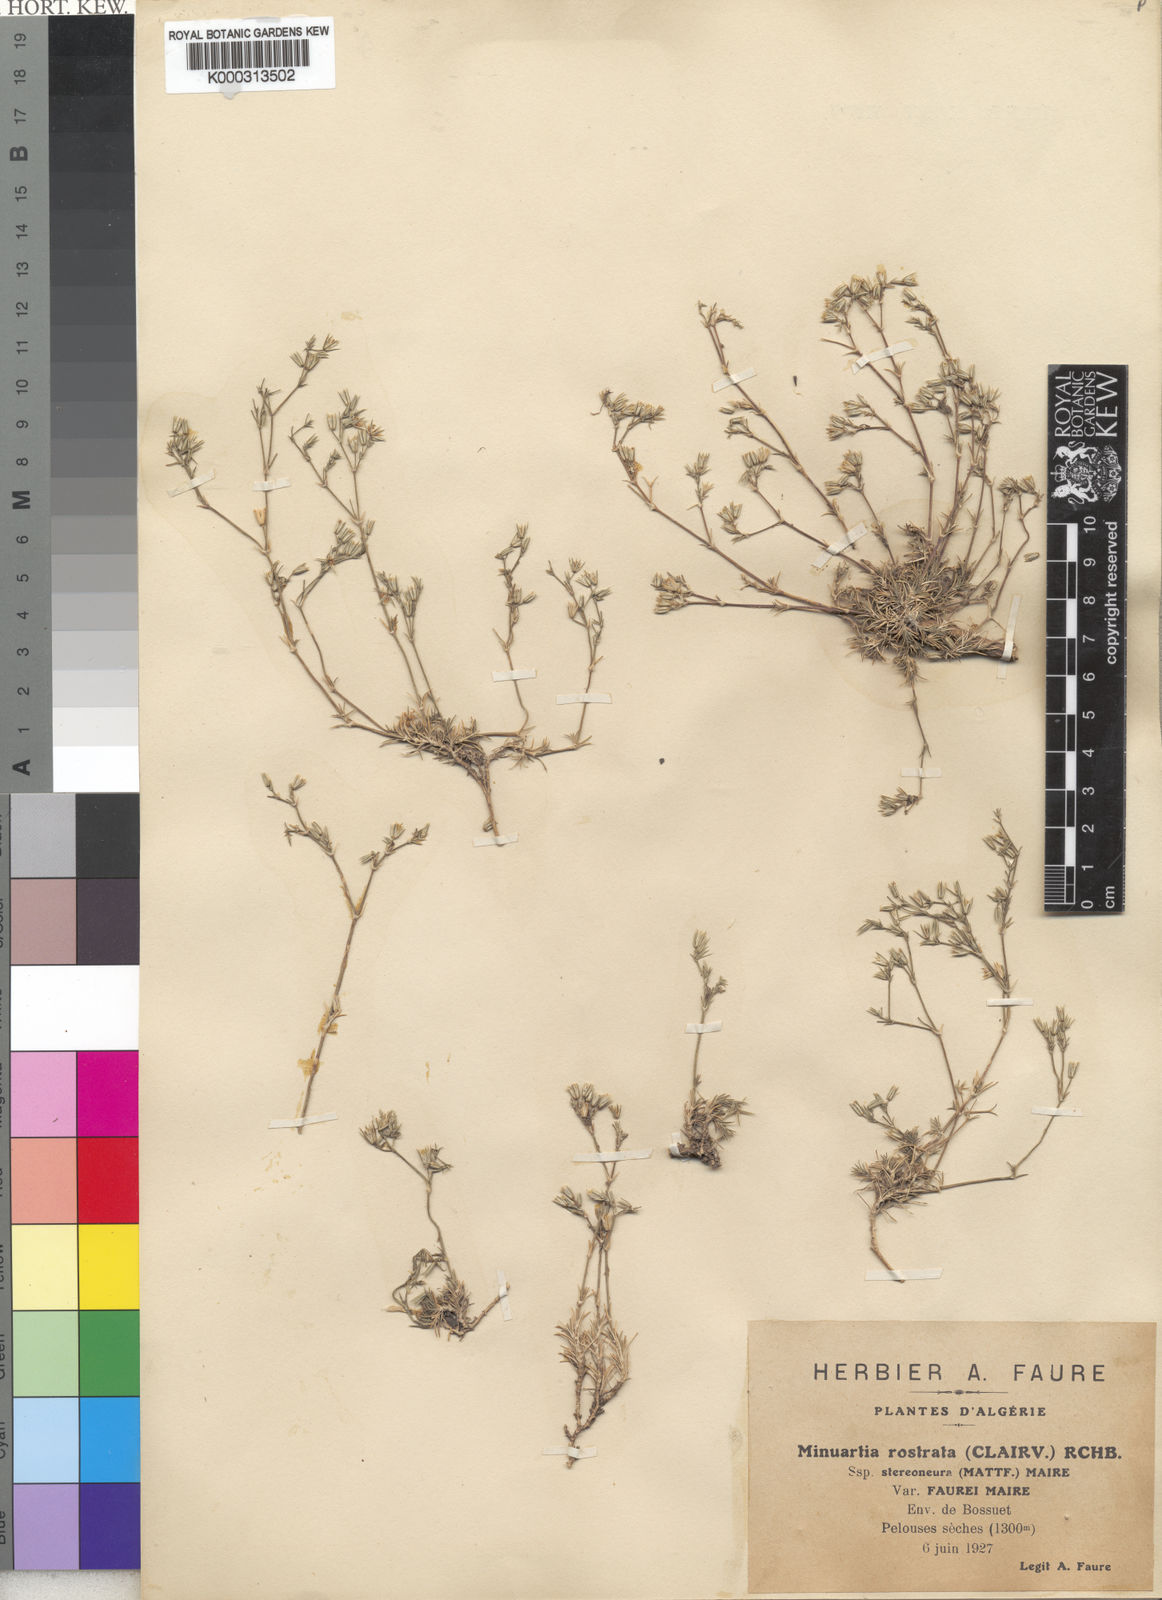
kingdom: Plantae
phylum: Tracheophyta
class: Magnoliopsida
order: Caryophyllales
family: Caryophyllaceae
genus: Minuartia
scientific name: Minuartia
